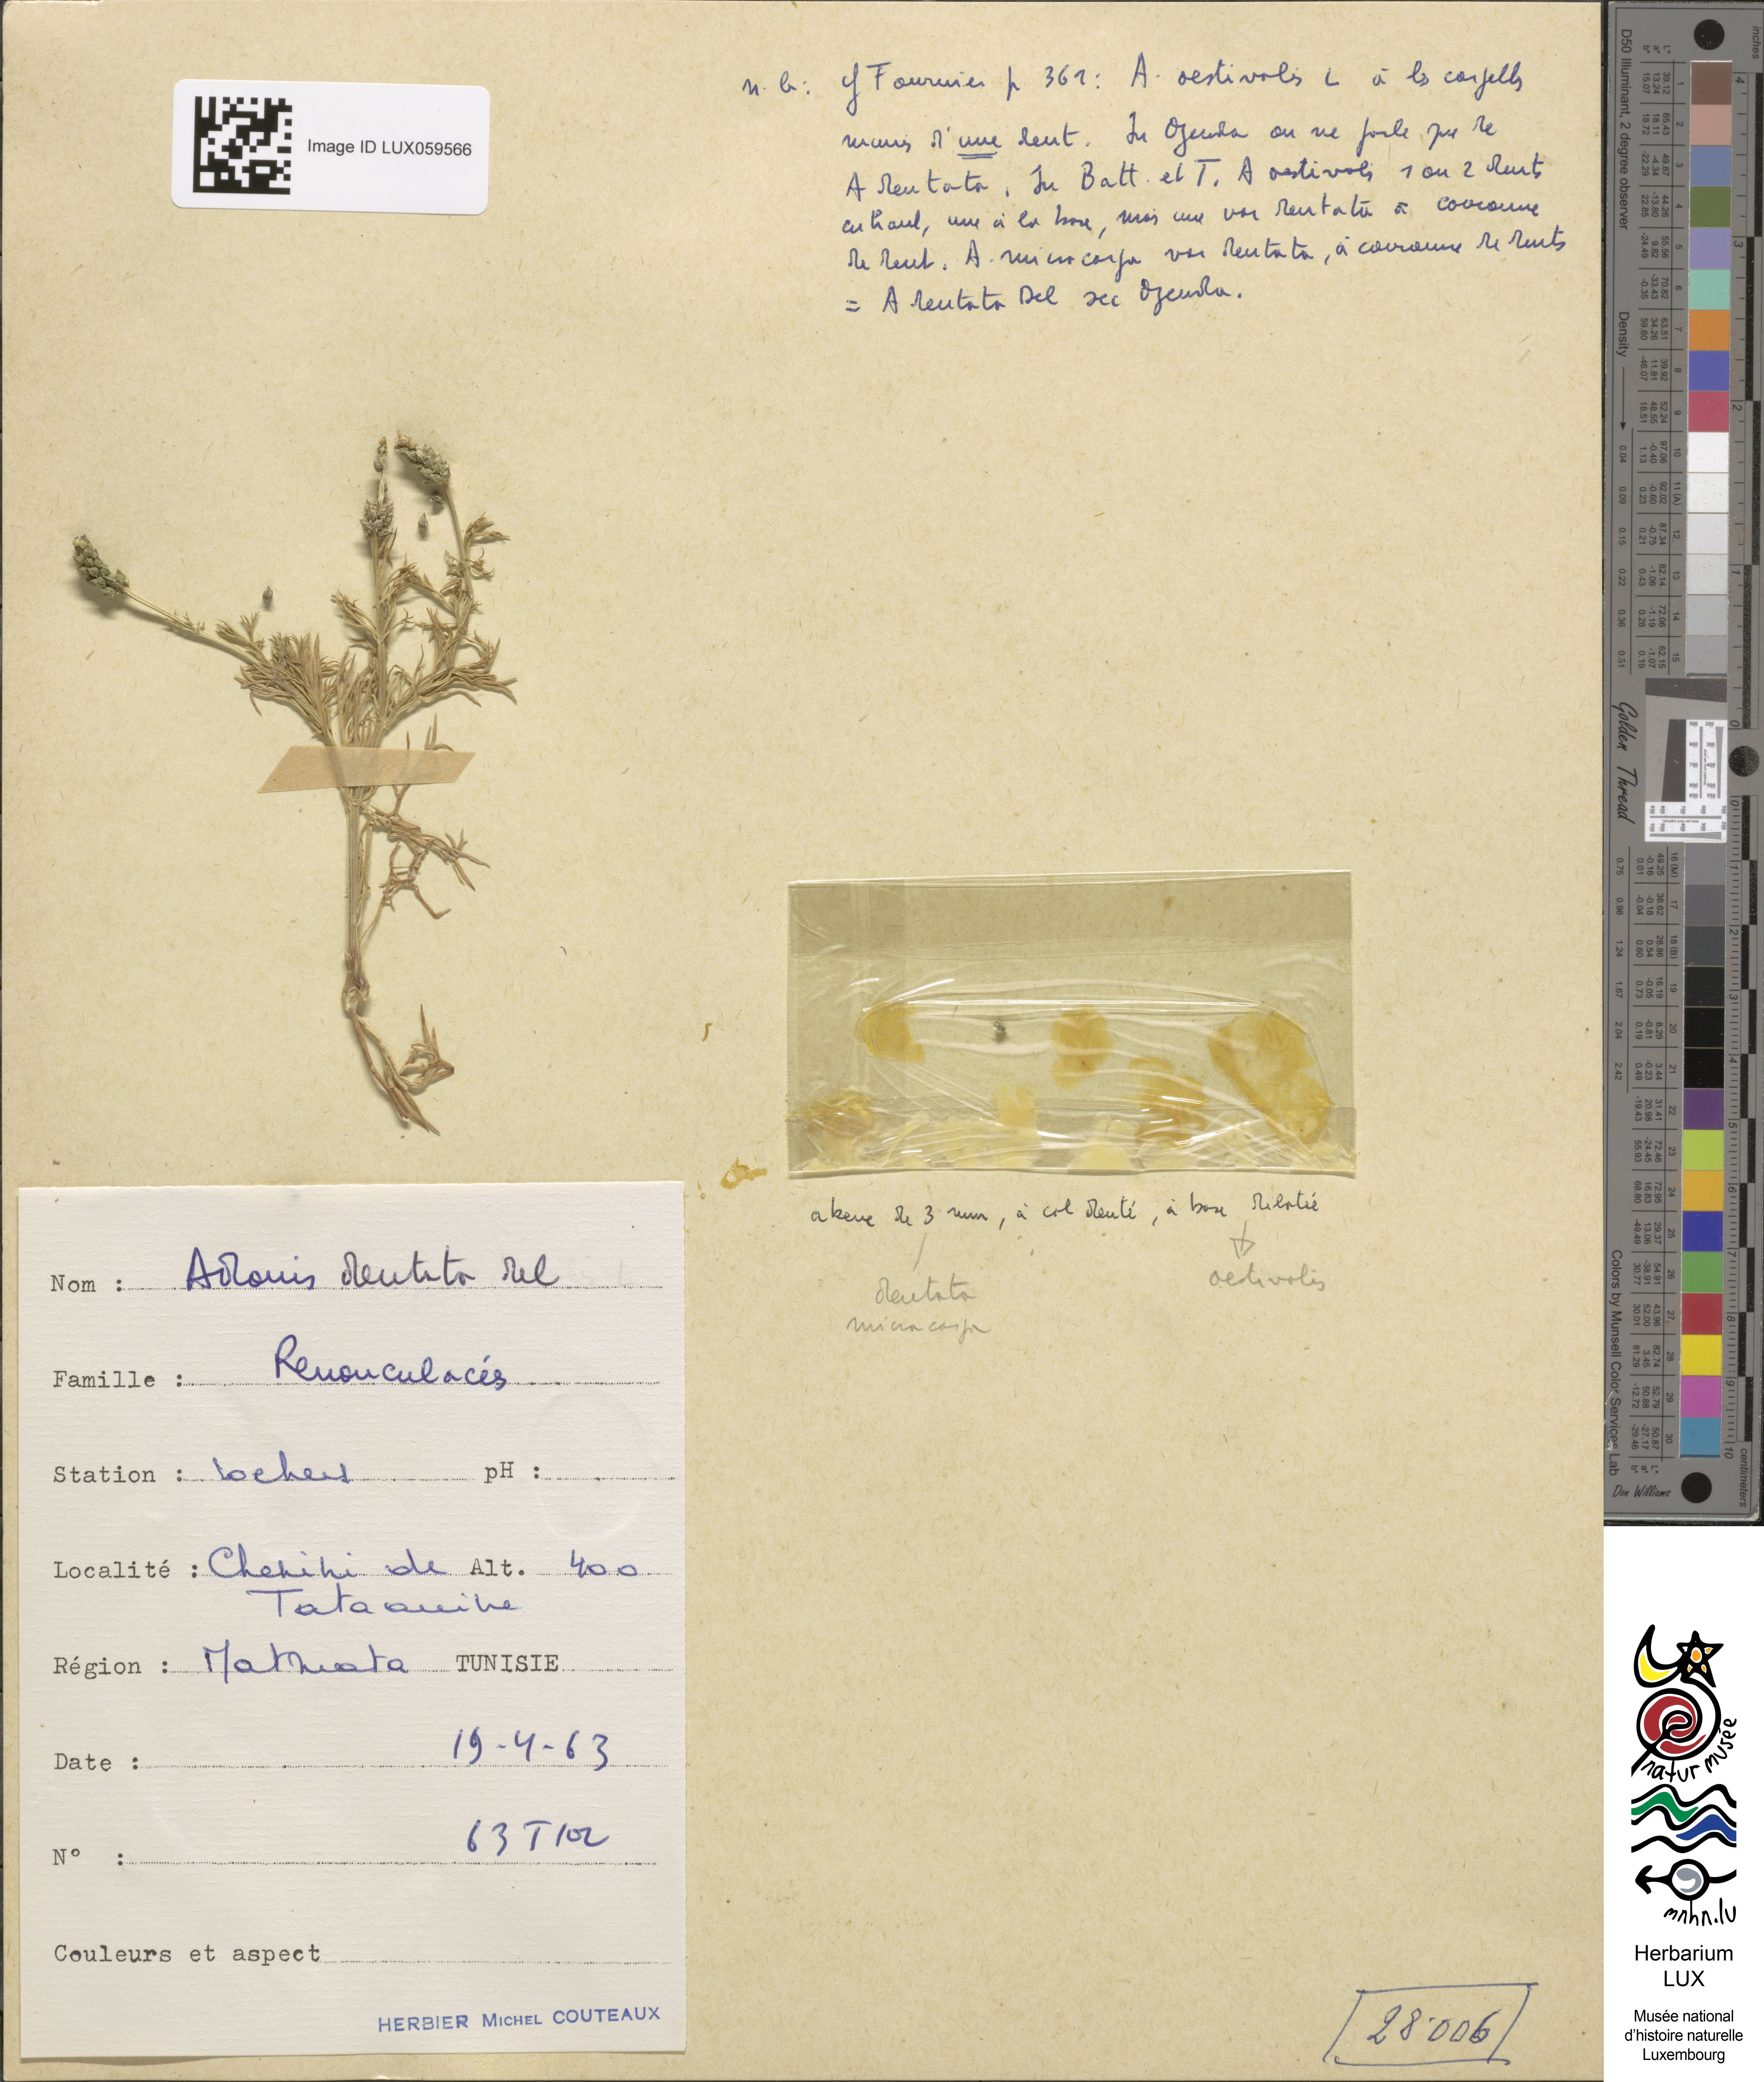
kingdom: Plantae
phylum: Tracheophyta
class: Magnoliopsida
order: Ranunculales
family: Ranunculaceae
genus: Adonis
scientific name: Adonis dentata
